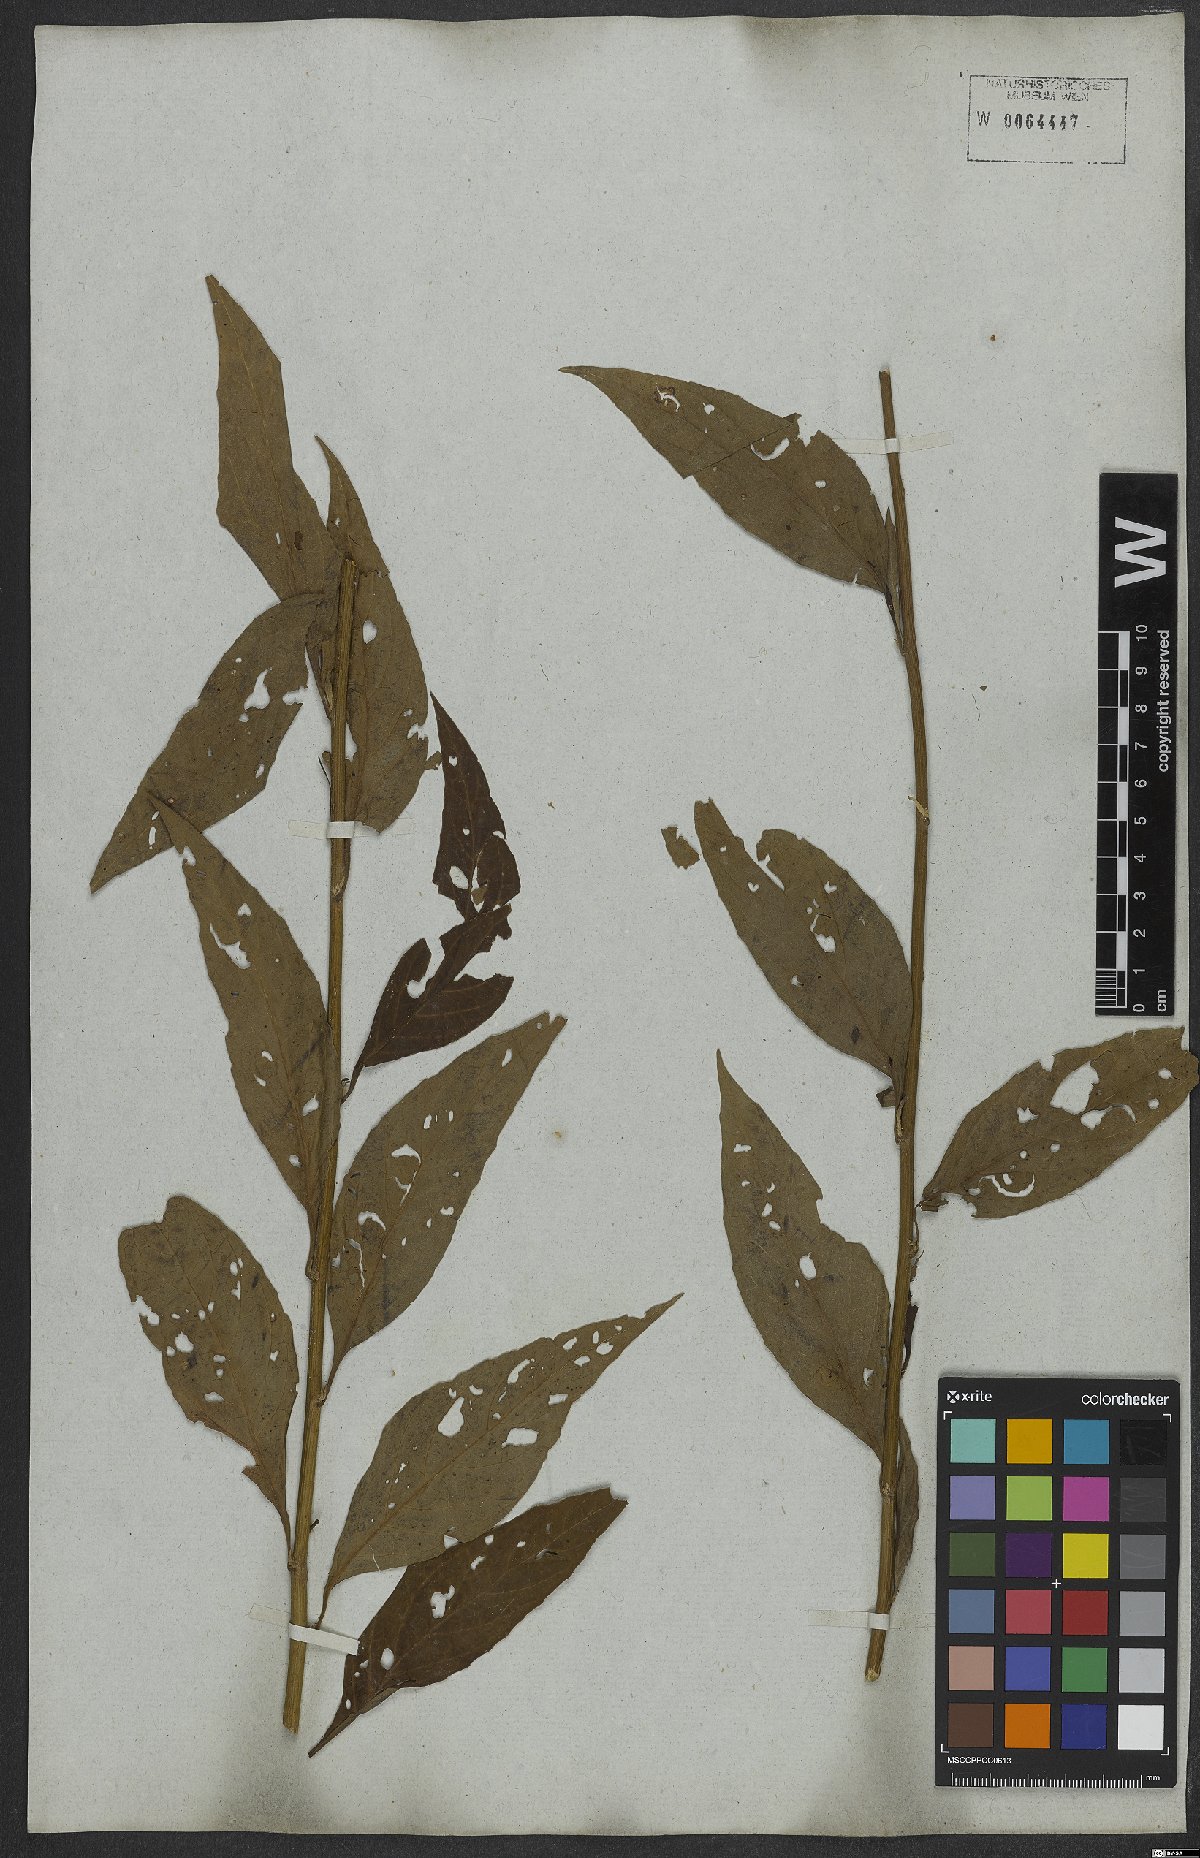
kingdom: Plantae
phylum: Tracheophyta
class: Magnoliopsida
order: Asterales
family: Asteraceae
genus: Vernonanthura
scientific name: Vernonanthura ignobilis
